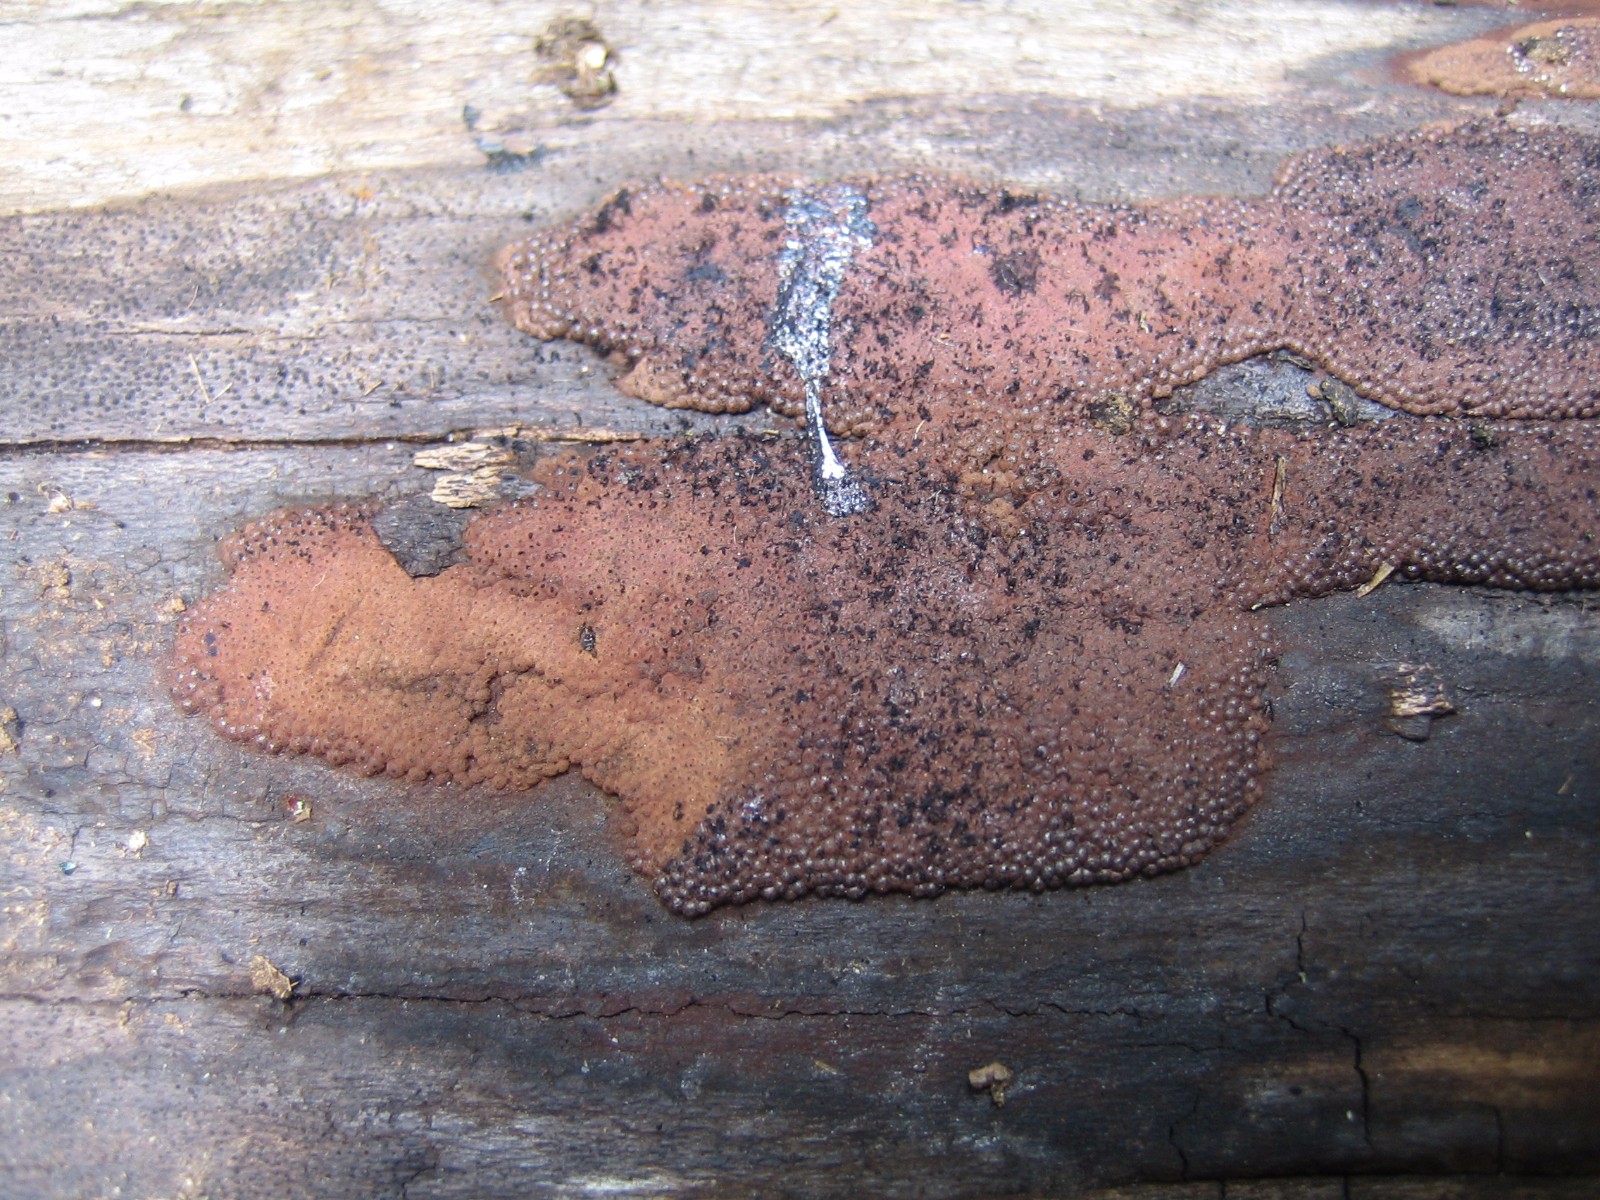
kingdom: Fungi
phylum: Ascomycota
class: Sordariomycetes
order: Xylariales
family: Hypoxylaceae
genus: Hypoxylon
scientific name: Hypoxylon macrocarpum
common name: skorpe-kulbær
